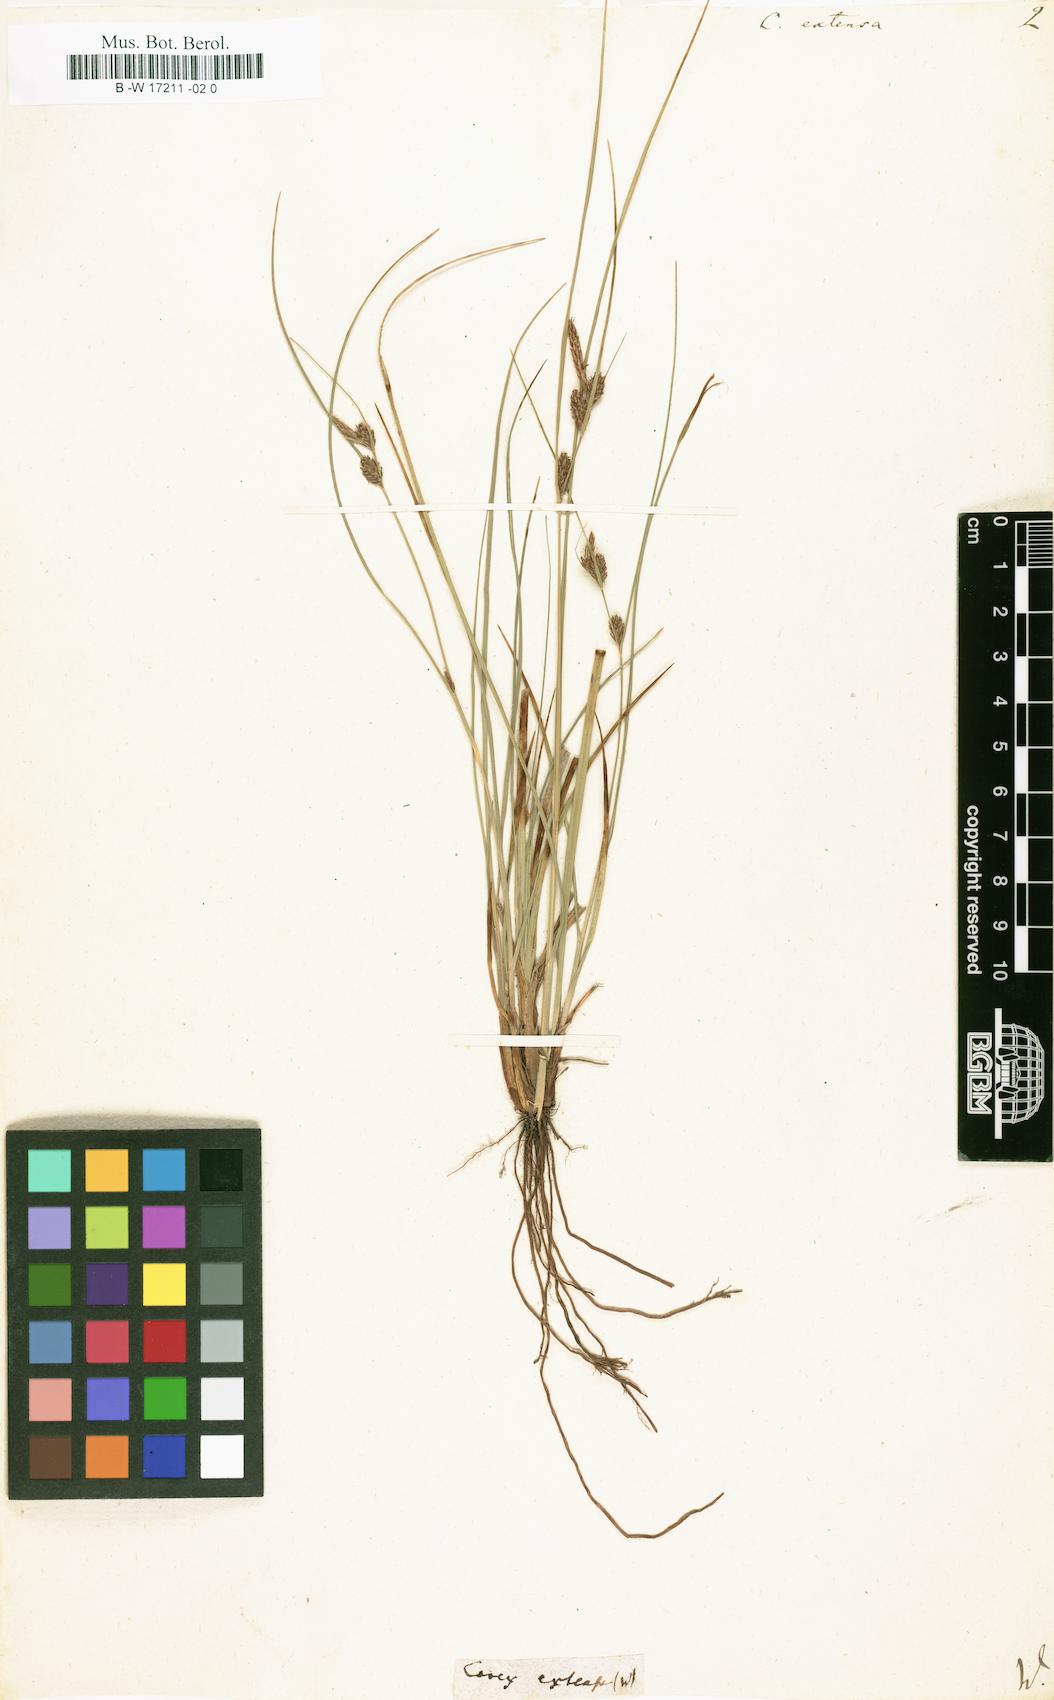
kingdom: Plantae
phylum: Tracheophyta
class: Liliopsida
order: Poales
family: Cyperaceae
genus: Carex
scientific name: Carex extensa
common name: Long-bracted sedge
